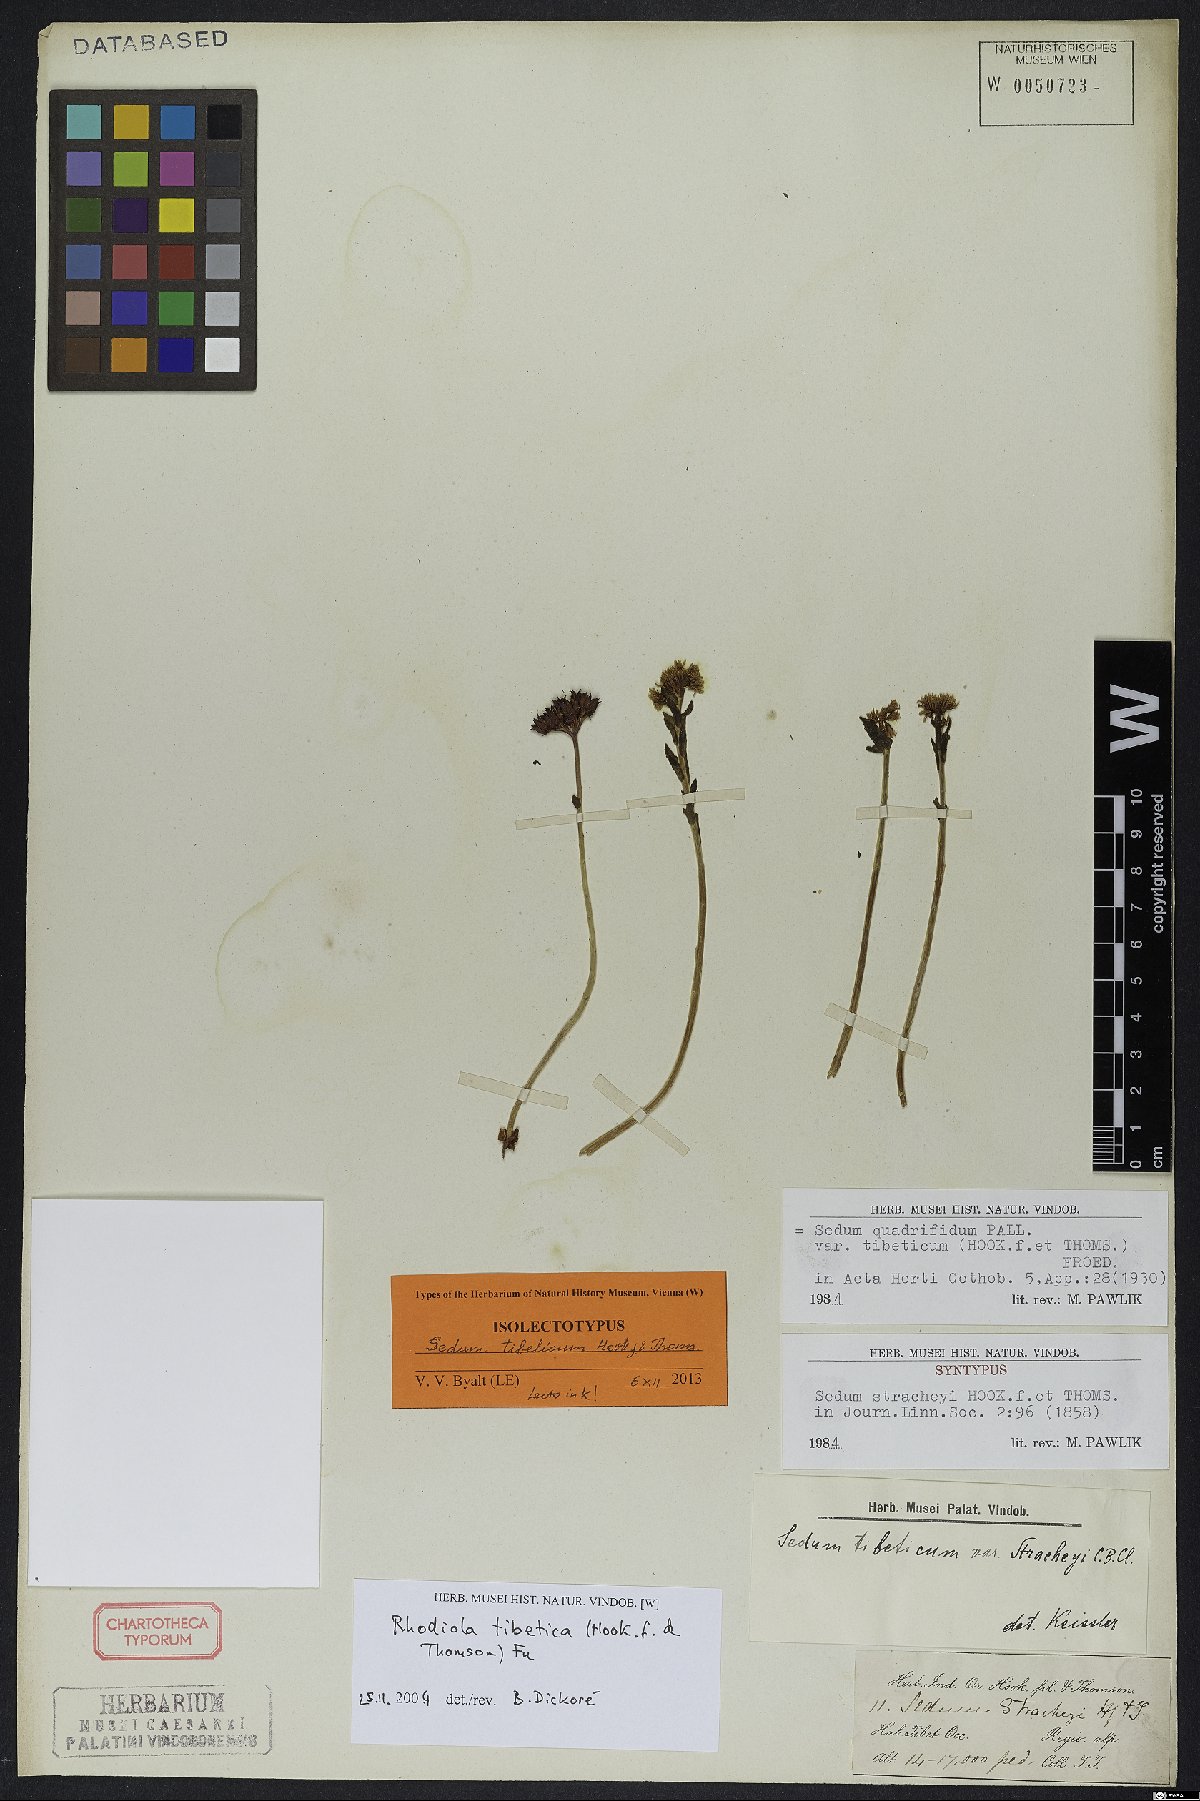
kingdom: Plantae
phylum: Tracheophyta
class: Magnoliopsida
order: Saxifragales
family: Crassulaceae
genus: Rhodiola
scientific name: Rhodiola tibetica
